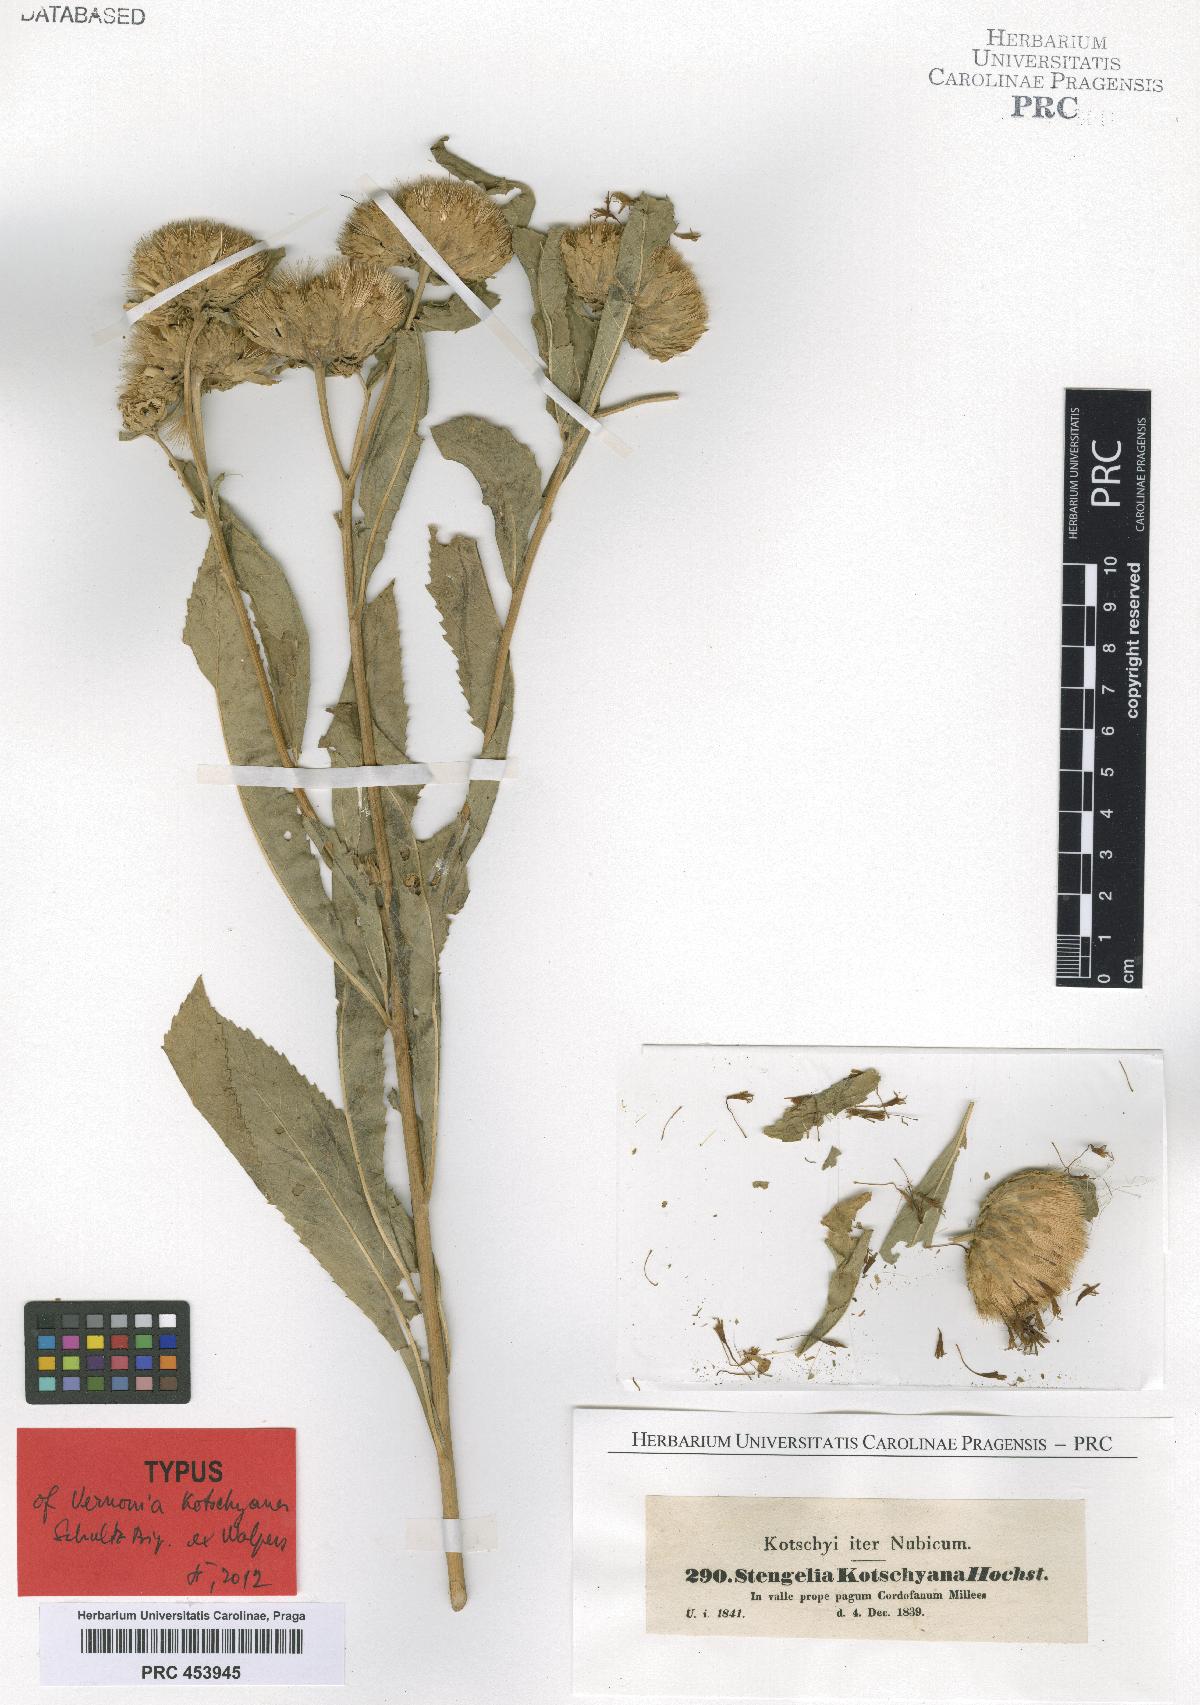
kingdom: Plantae
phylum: Tracheophyta
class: Magnoliopsida
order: Asterales
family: Asteraceae
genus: Baccharoides
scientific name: Baccharoides adoensis
